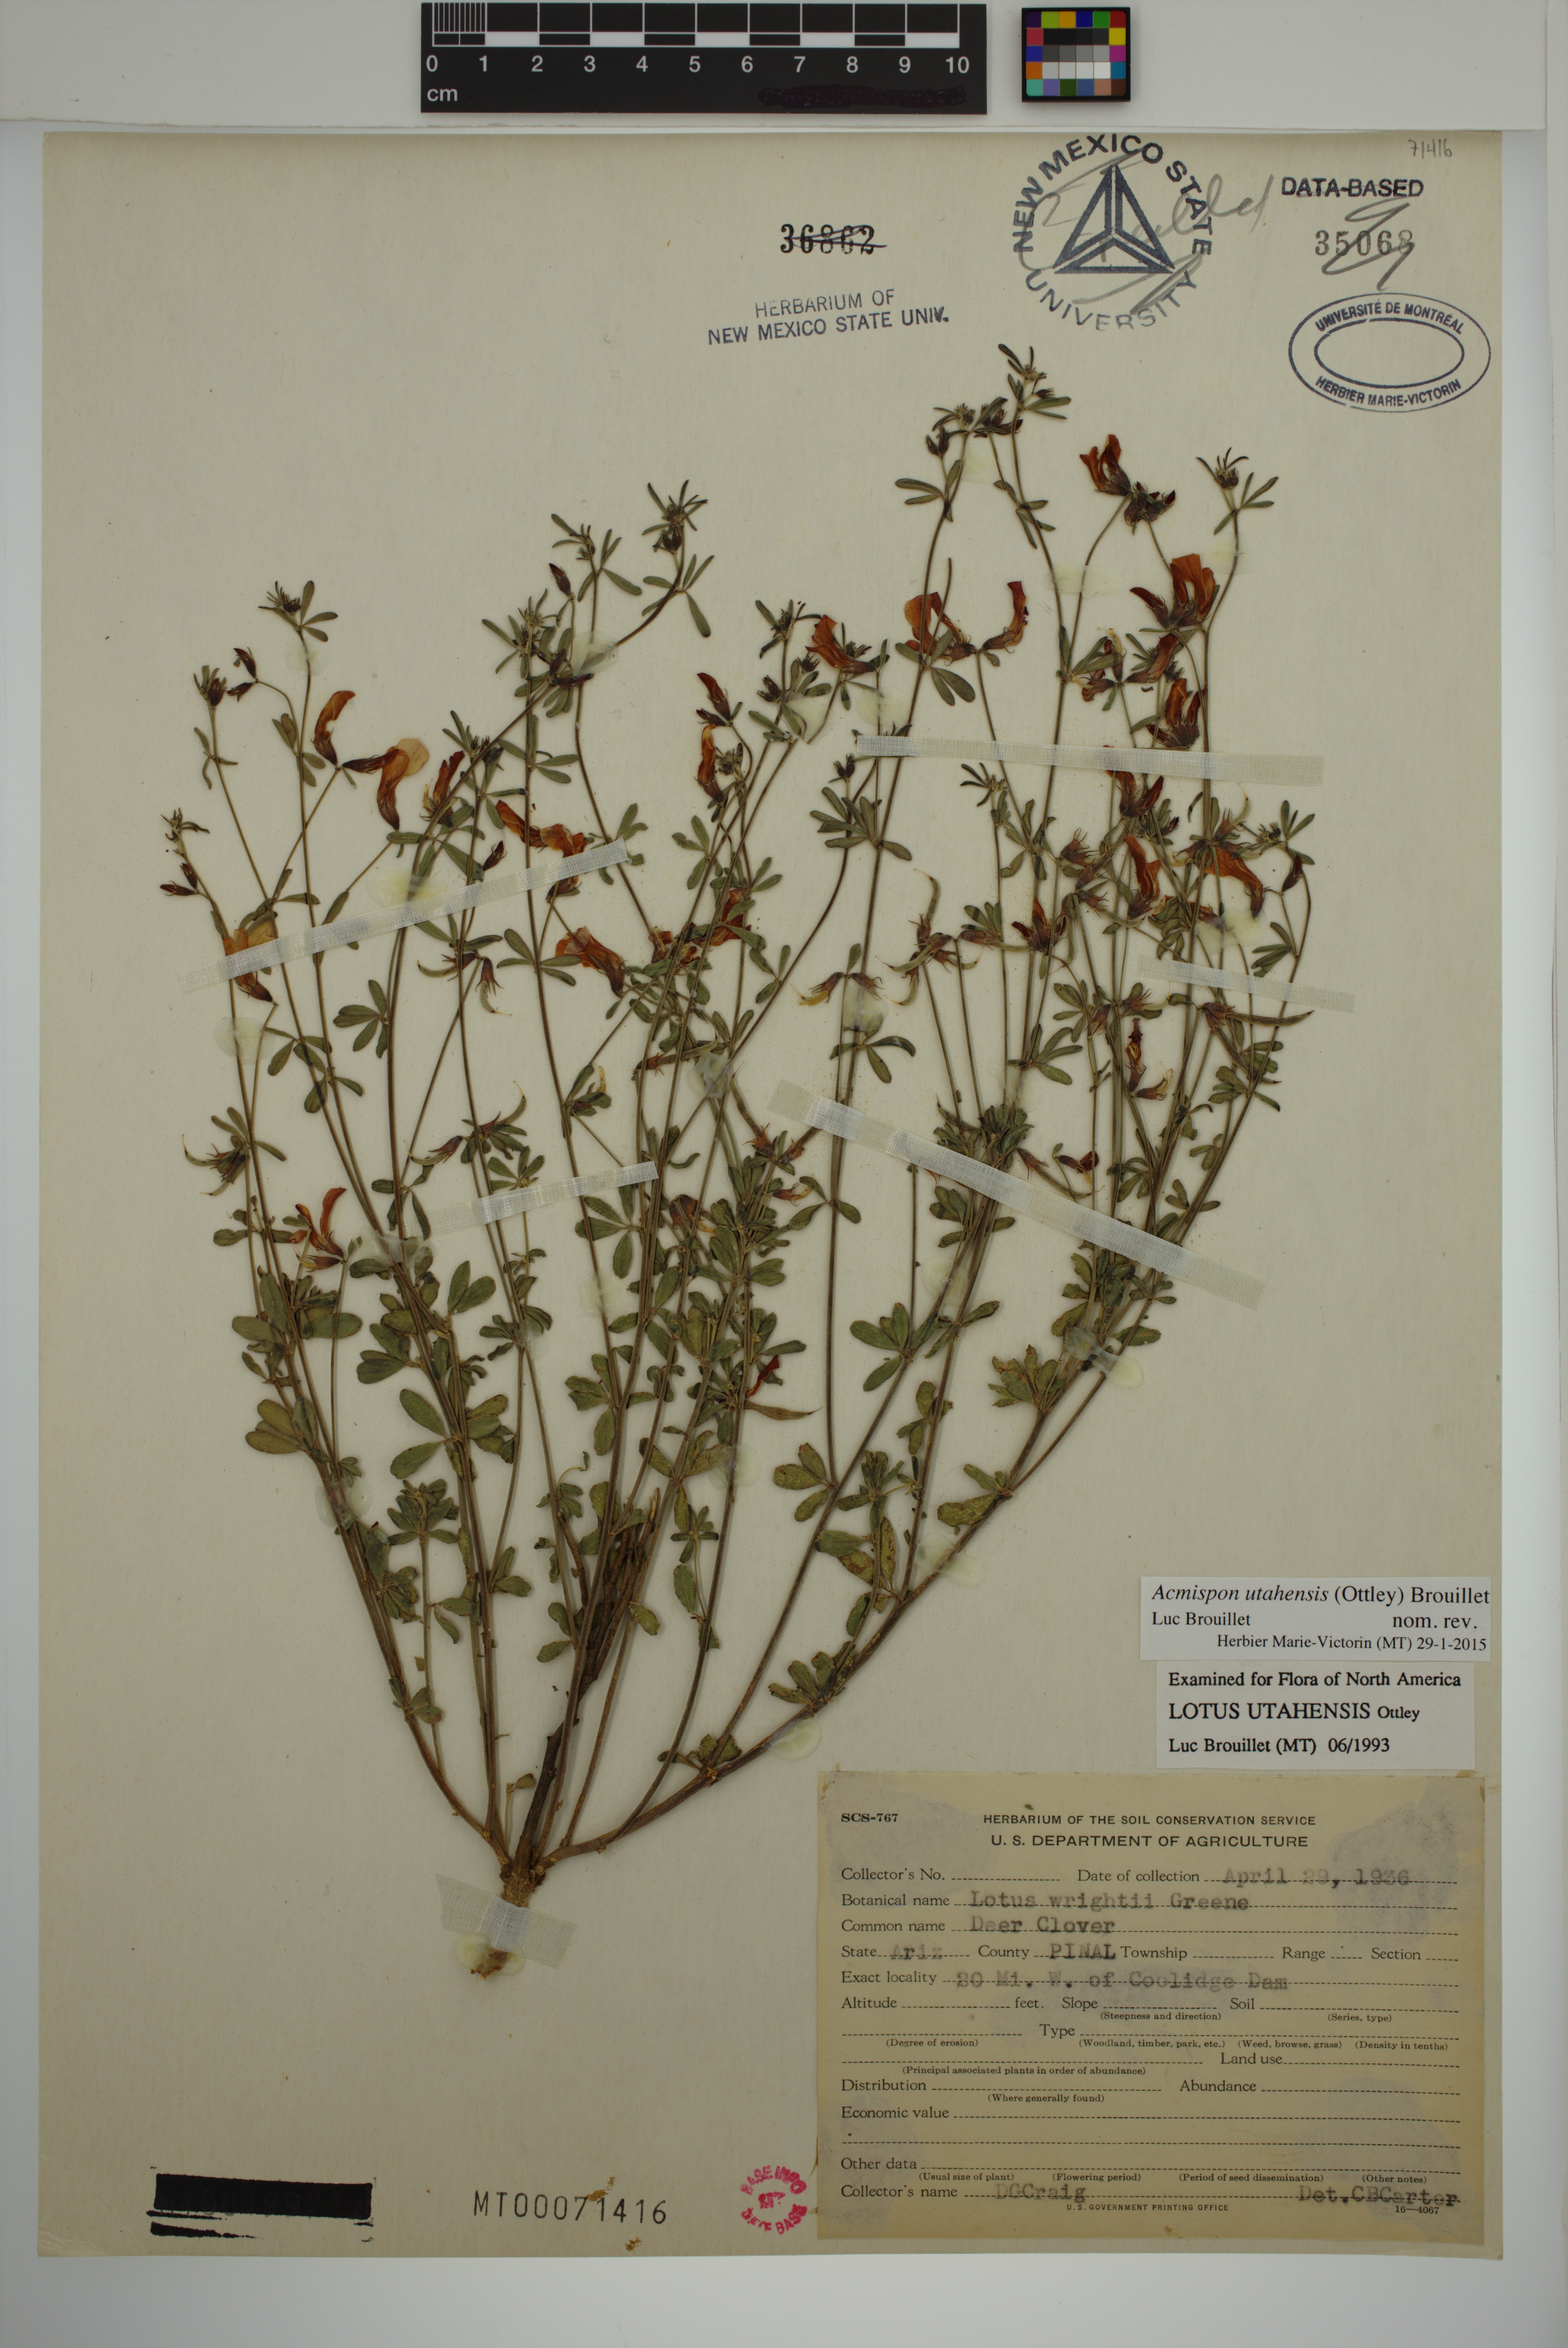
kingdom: Plantae
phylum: Tracheophyta
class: Magnoliopsida
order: Fabales
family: Fabaceae
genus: Acmispon
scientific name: Acmispon utahensis
